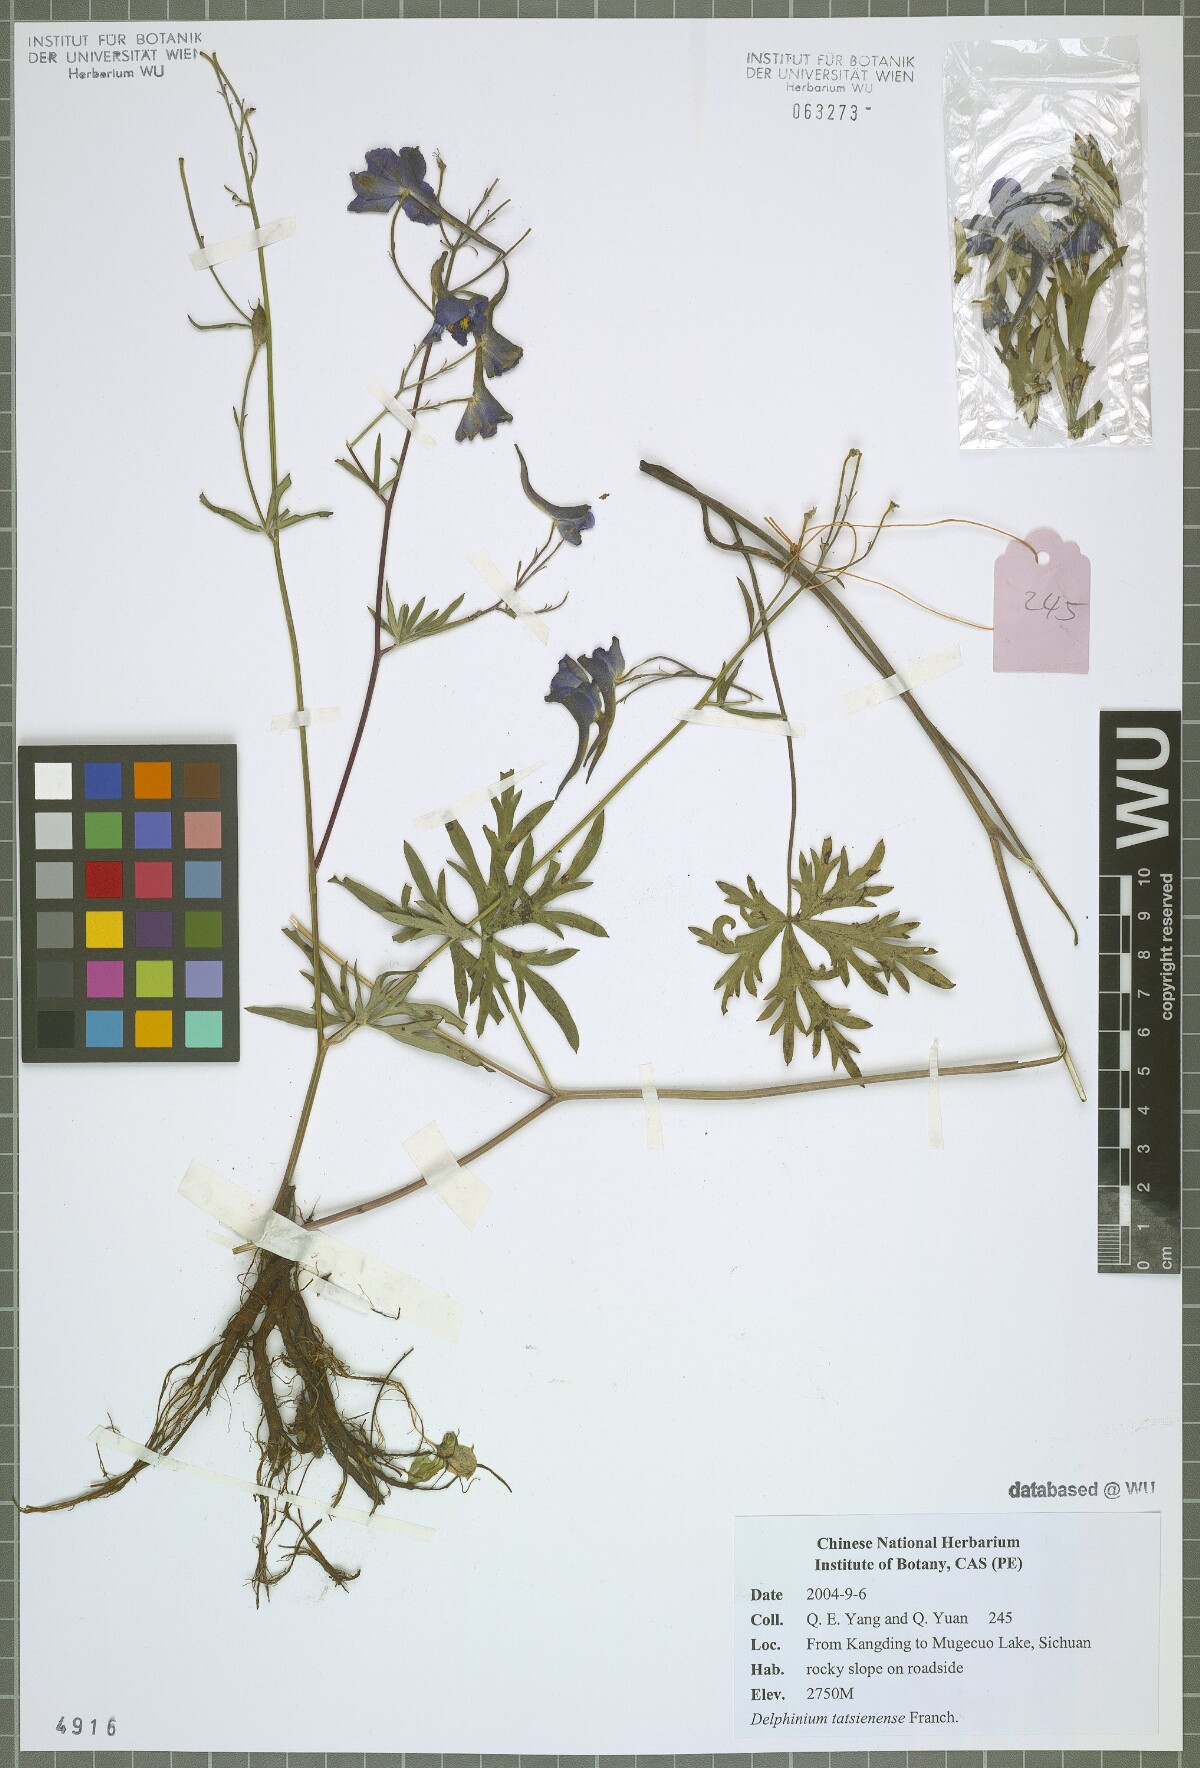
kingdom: Plantae
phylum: Tracheophyta
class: Magnoliopsida
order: Ranunculales
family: Ranunculaceae
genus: Delphinium
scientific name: Delphinium tatsienense
